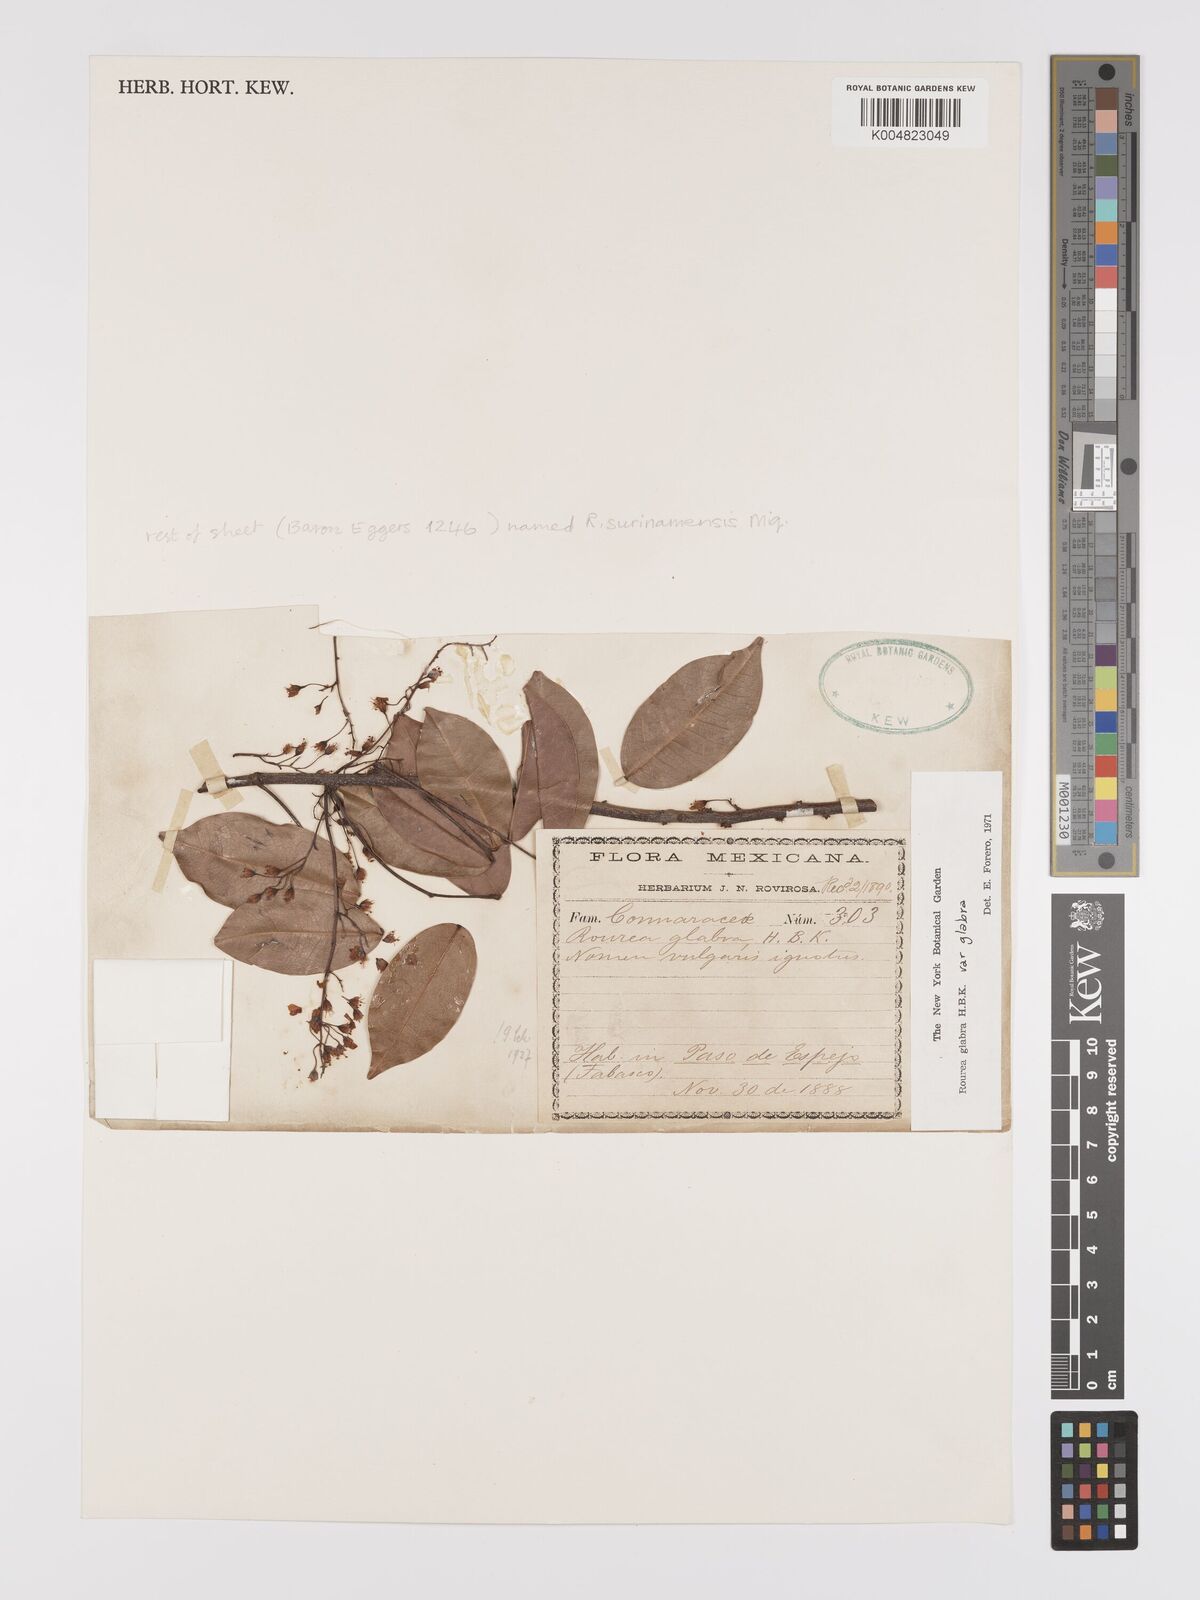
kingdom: Plantae
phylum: Tracheophyta
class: Magnoliopsida
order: Oxalidales
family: Connaraceae
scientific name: Connaraceae
